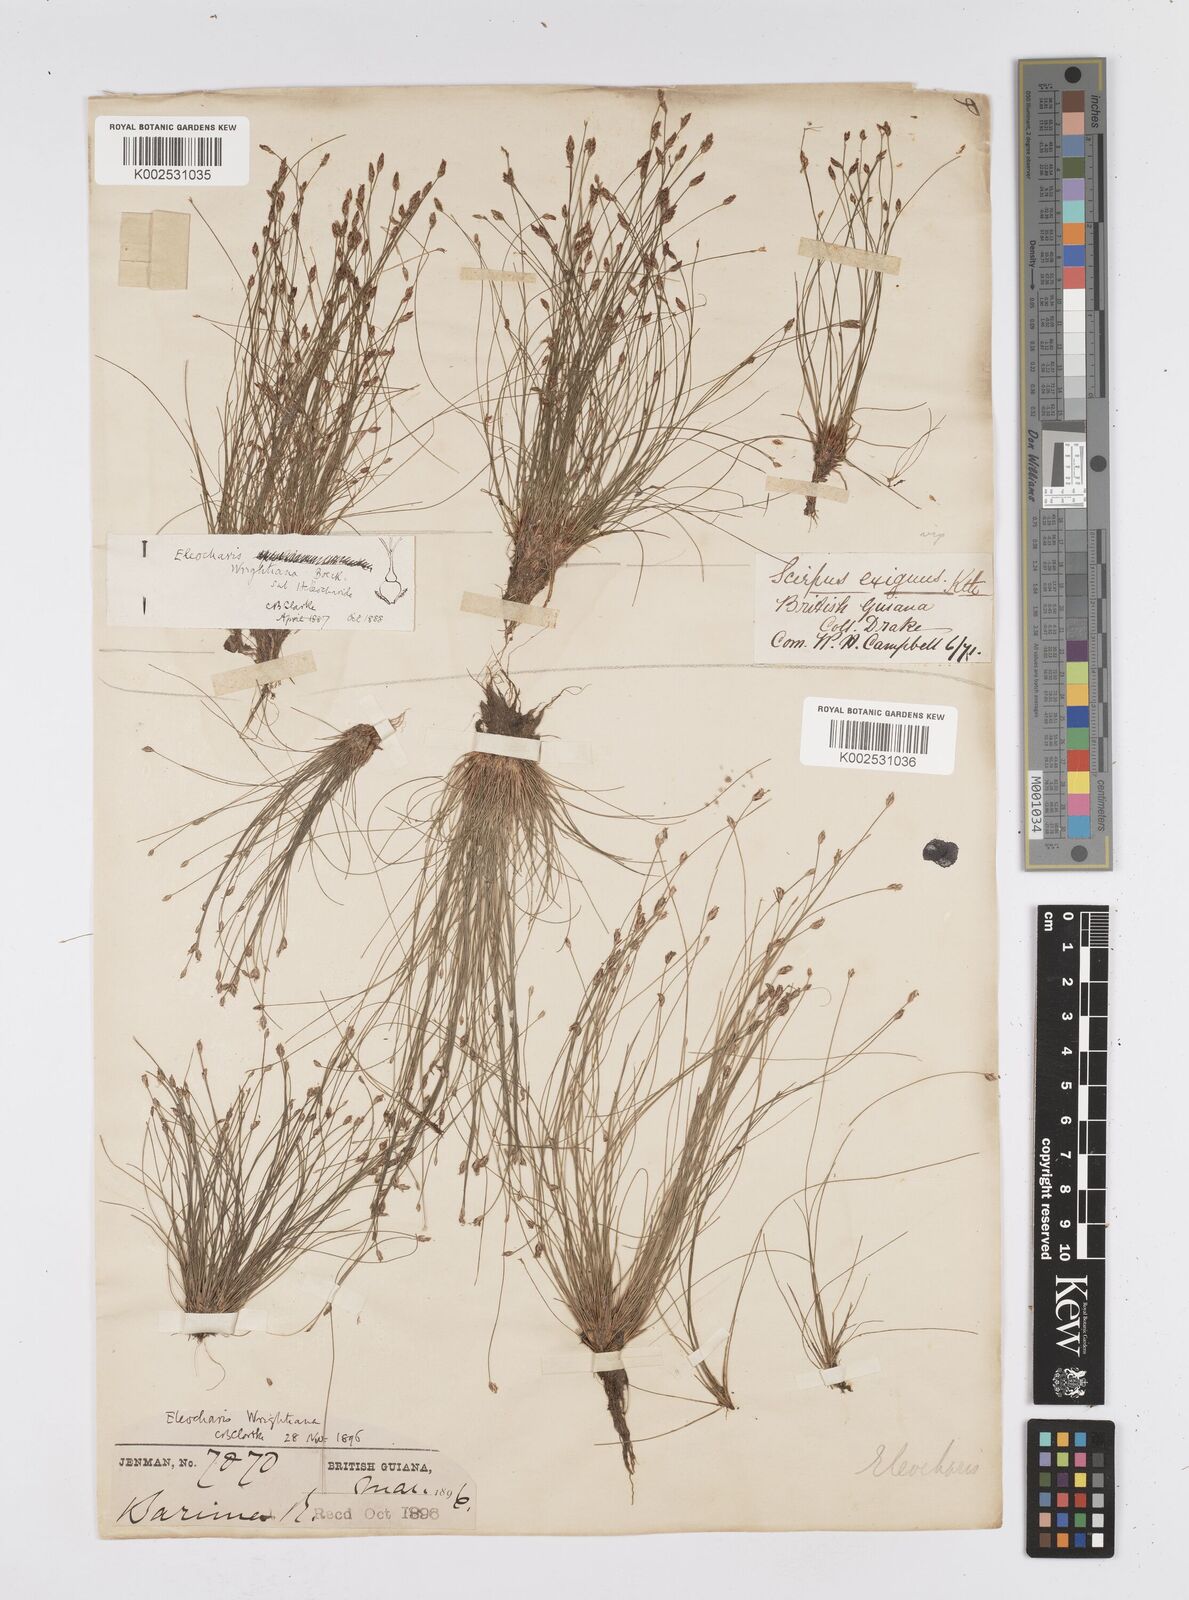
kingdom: Plantae
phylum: Tracheophyta
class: Liliopsida
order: Poales
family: Cyperaceae
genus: Eleocharis
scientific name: Eleocharis subfoliata
